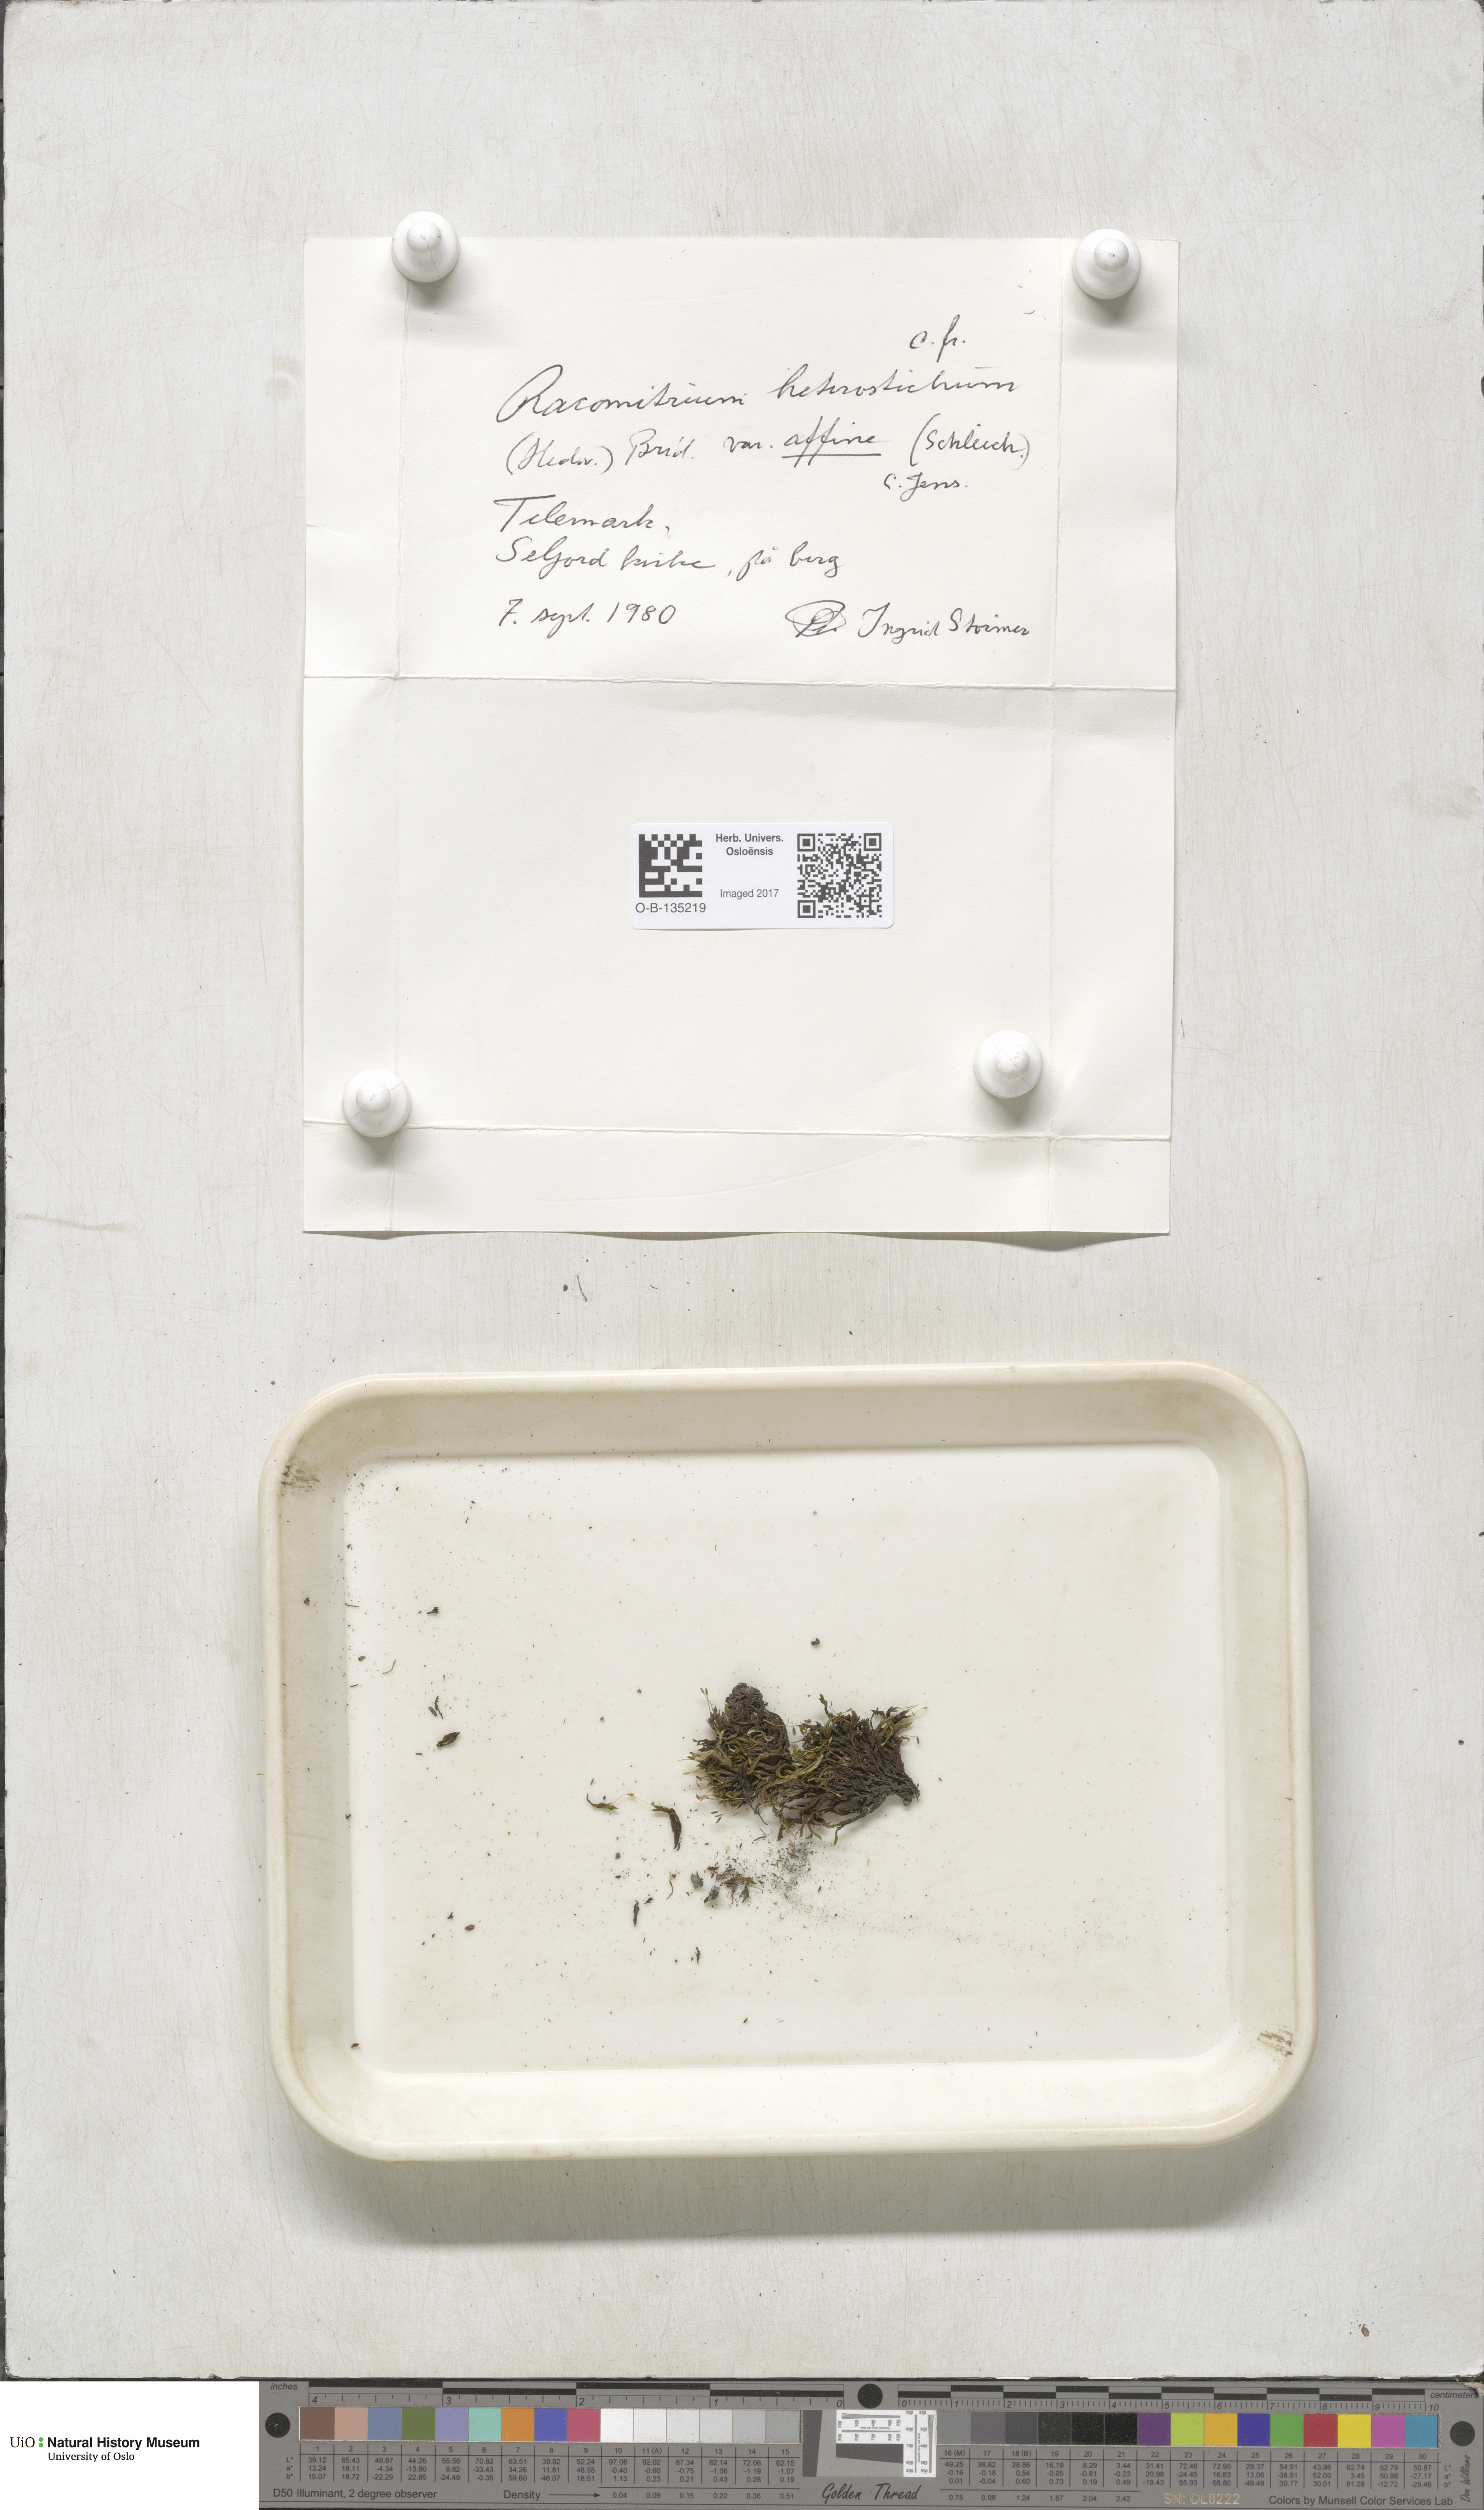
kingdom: Plantae
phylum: Bryophyta
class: Bryopsida
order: Grimmiales
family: Grimmiaceae
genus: Bucklandiella
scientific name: Bucklandiella affinis
